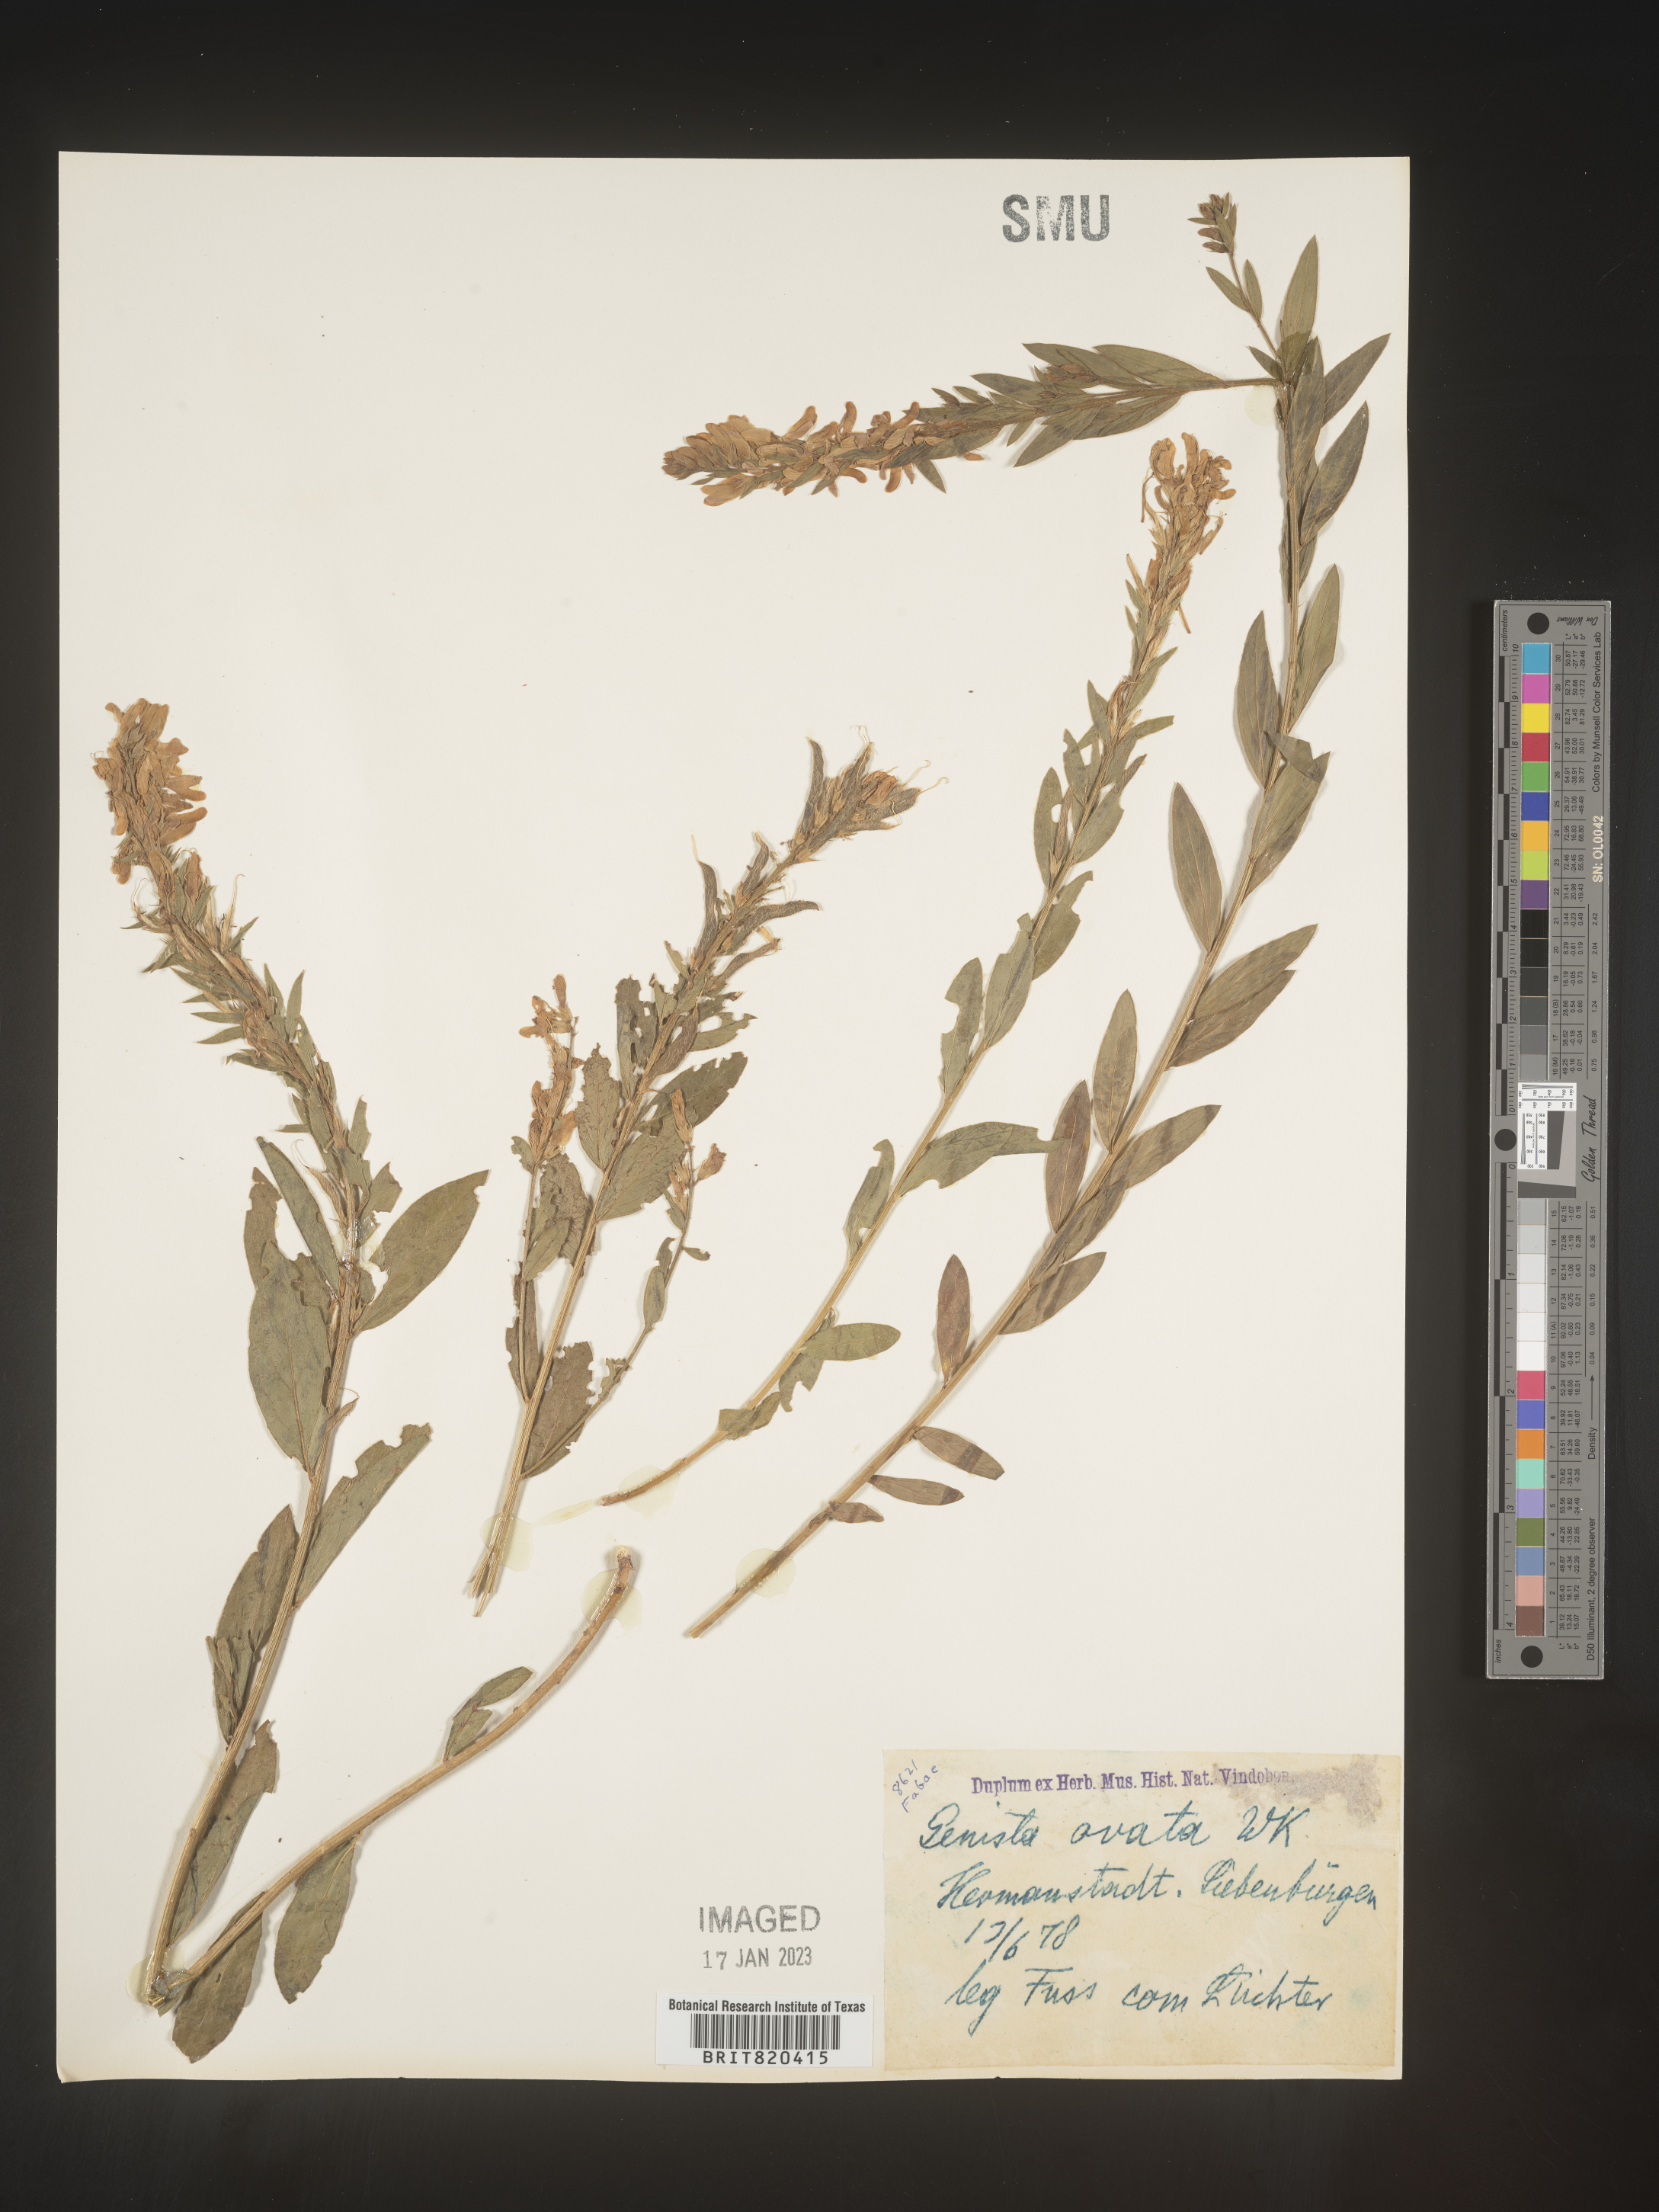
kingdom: Plantae
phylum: Tracheophyta
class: Magnoliopsida
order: Fabales
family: Fabaceae
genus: Genista
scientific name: Genista
